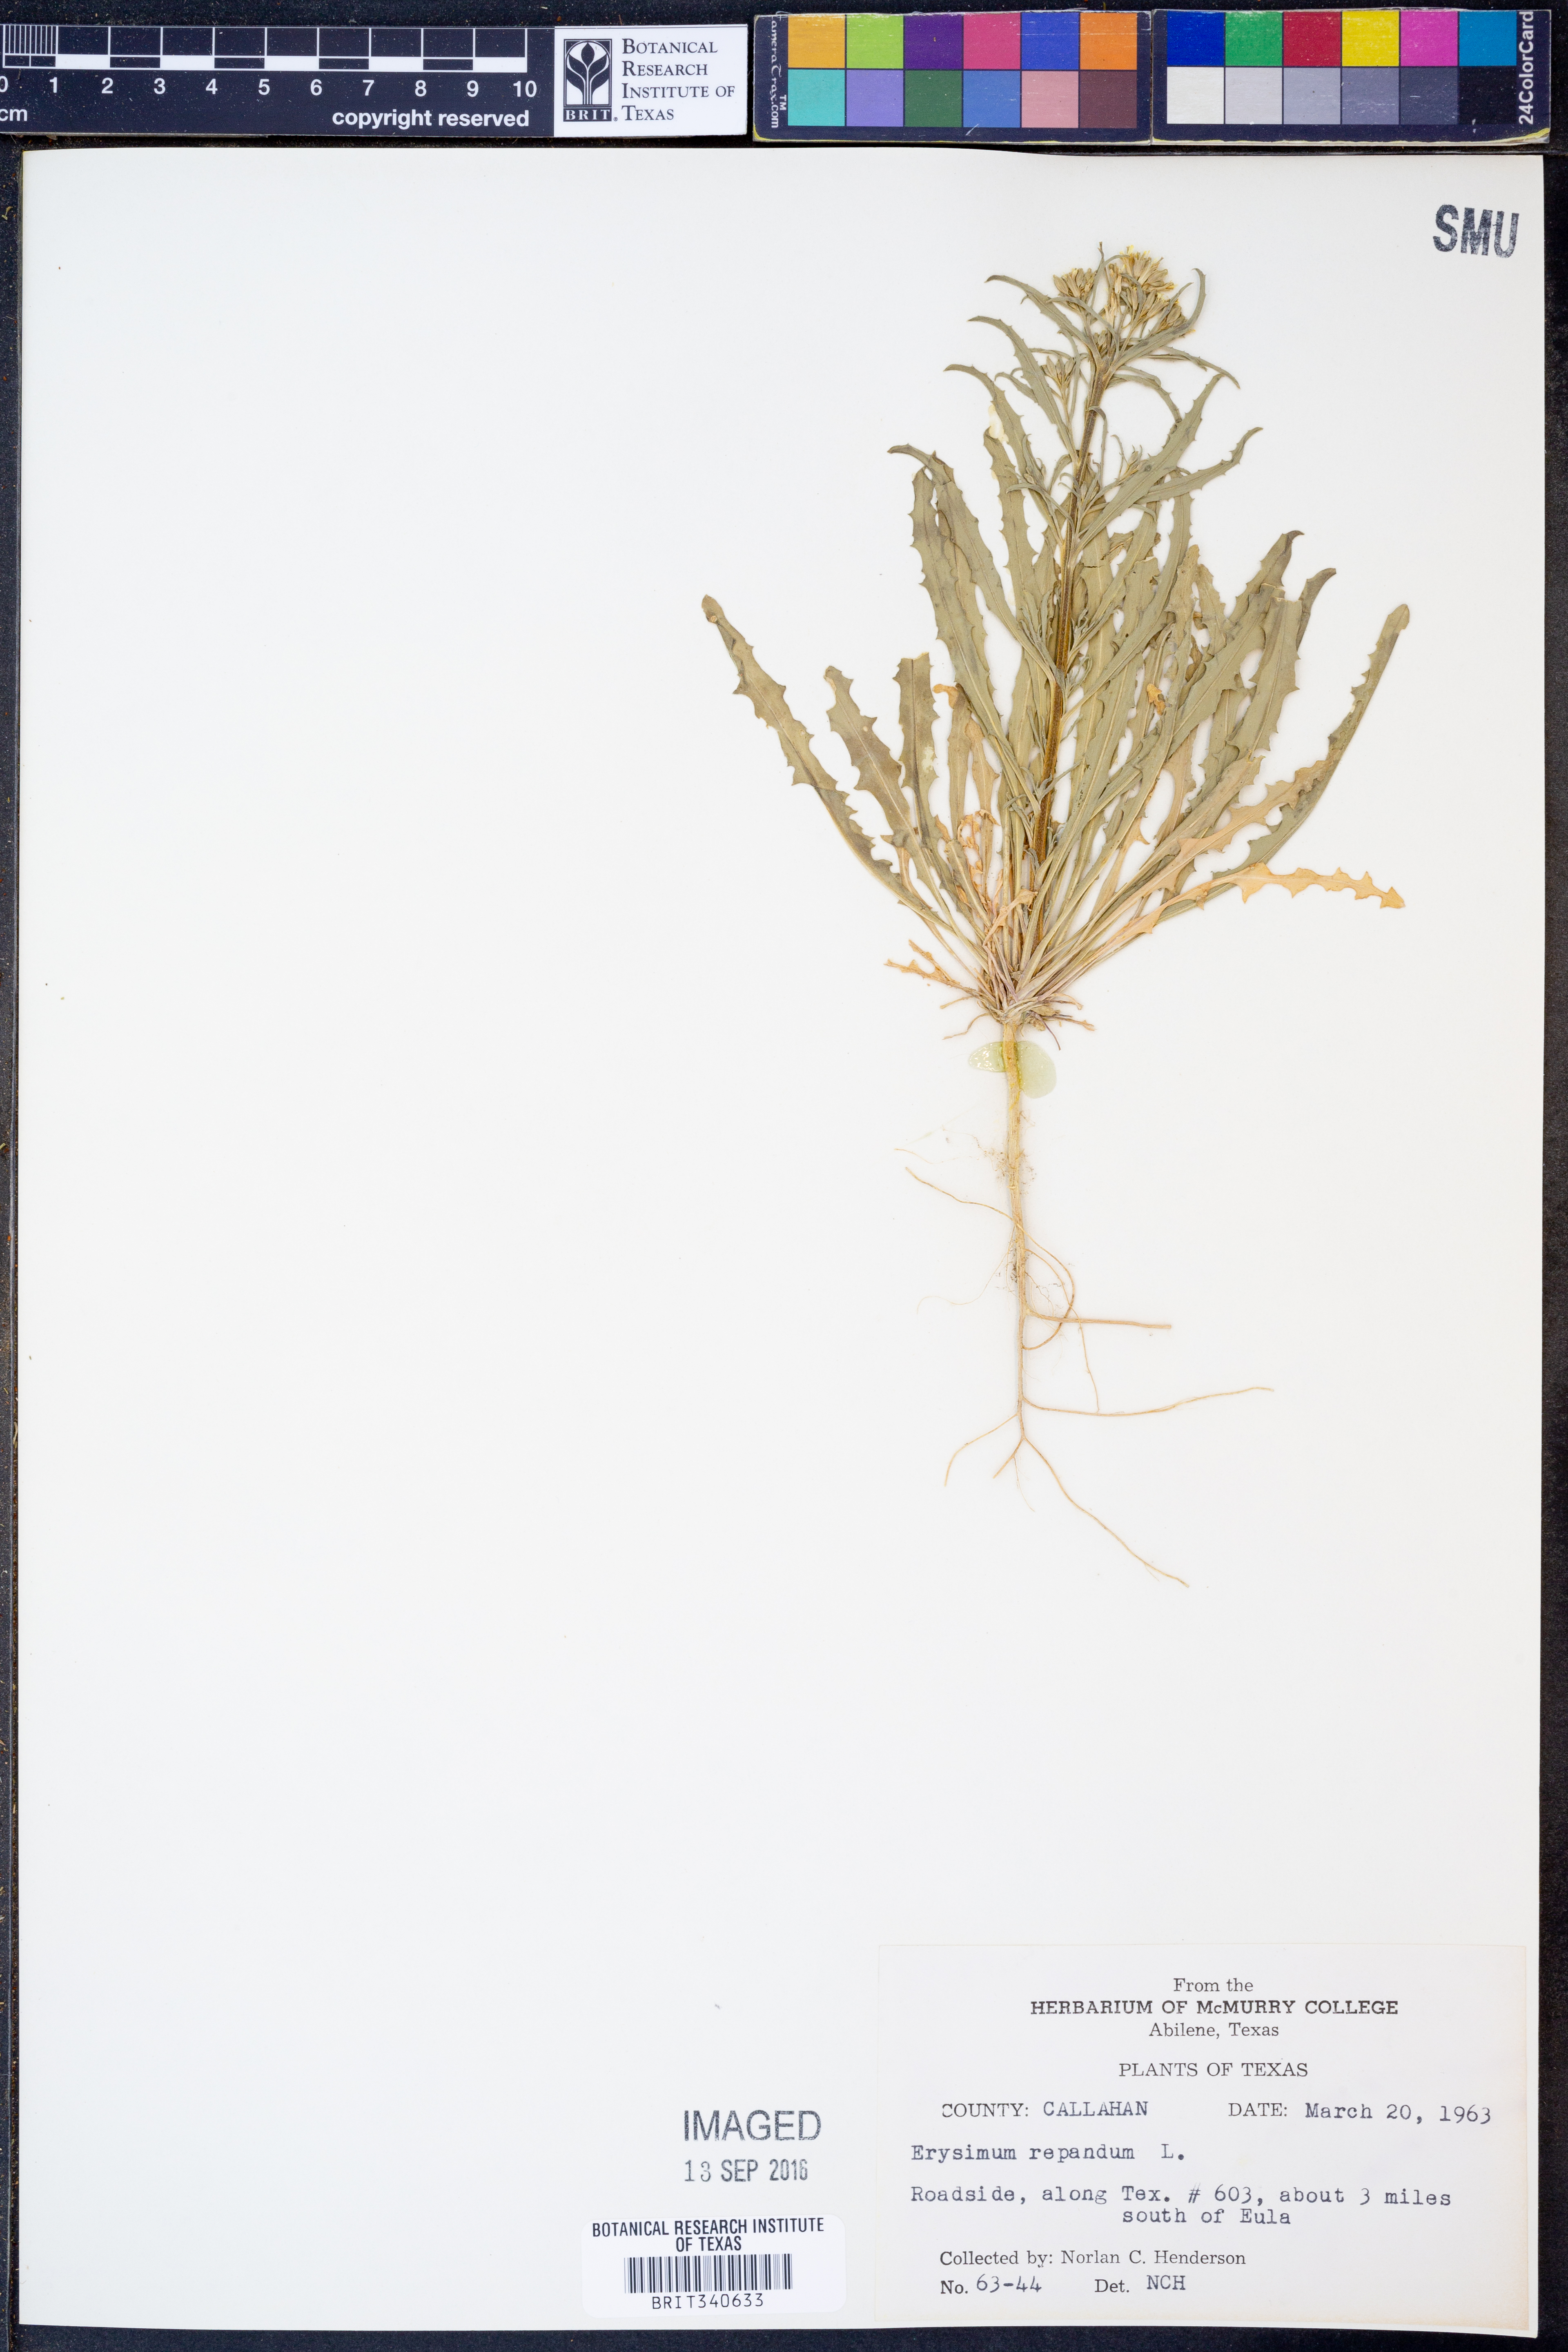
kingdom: Plantae
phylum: Tracheophyta
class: Magnoliopsida
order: Brassicales
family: Brassicaceae
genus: Erysimum
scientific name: Erysimum repandum
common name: Spreading wallflower
